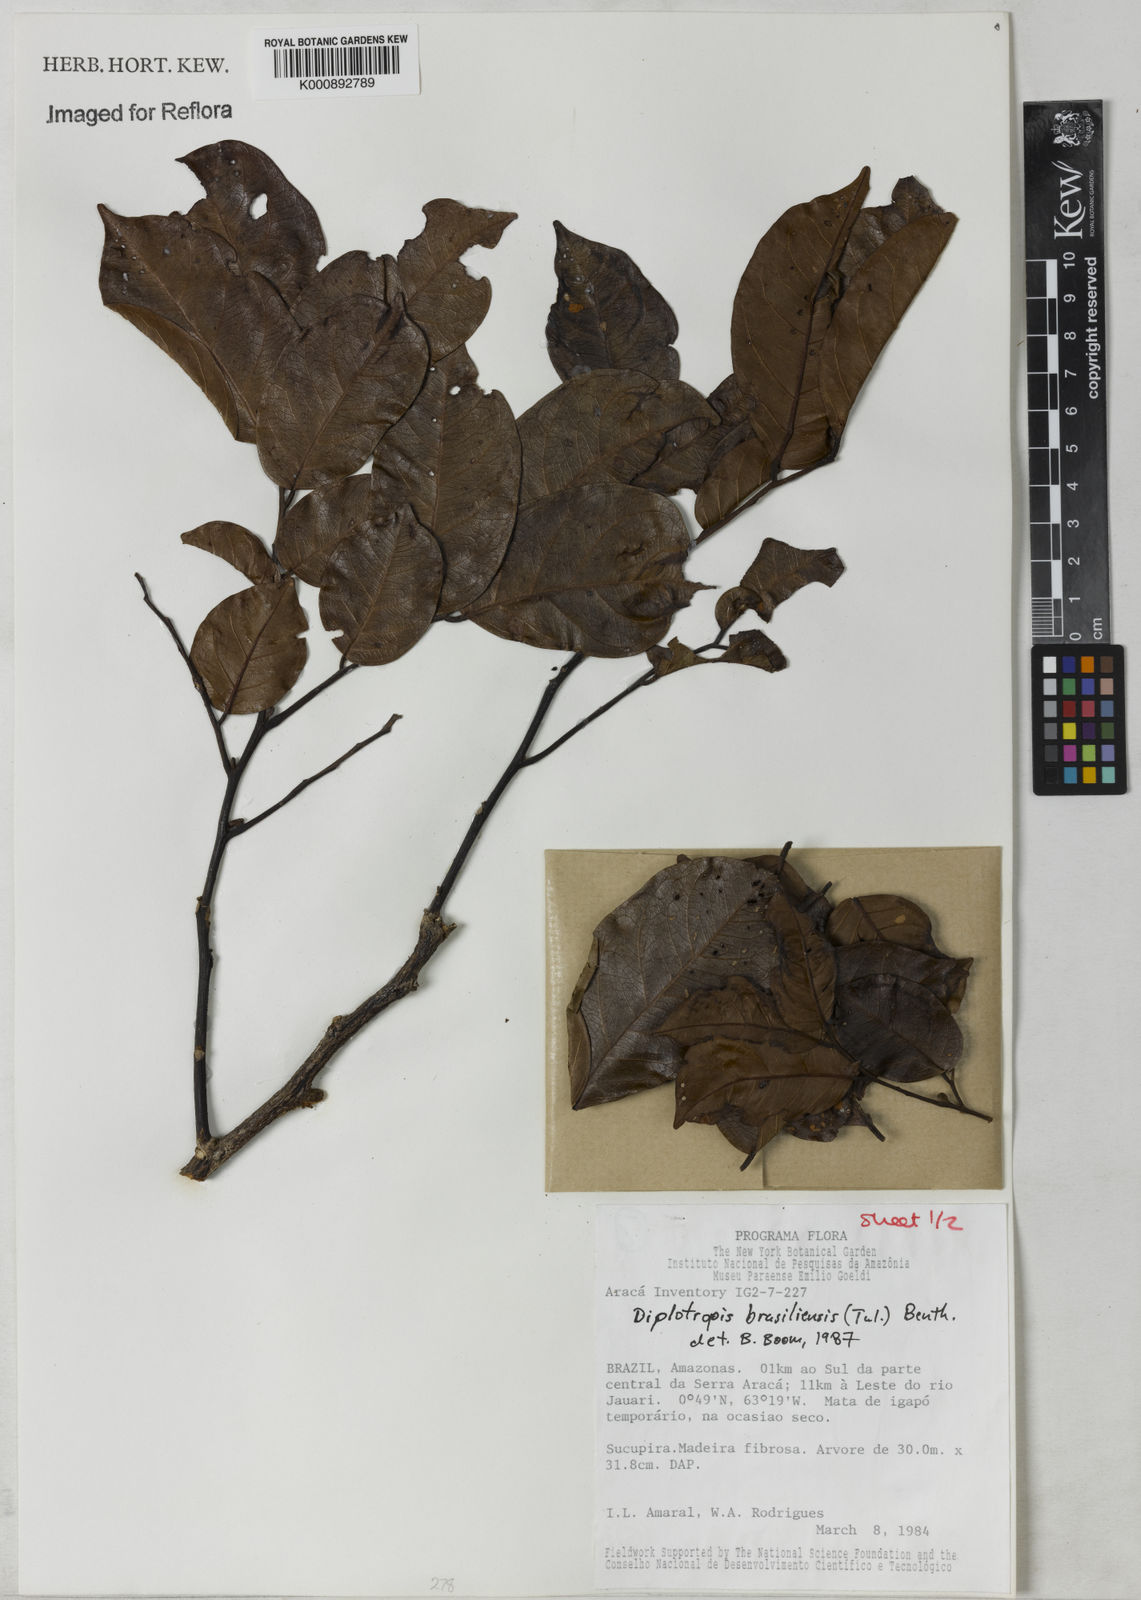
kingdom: Plantae
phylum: Tracheophyta
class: Magnoliopsida
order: Fabales
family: Fabaceae
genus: Diplotropis
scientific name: Diplotropis brasiliensis
